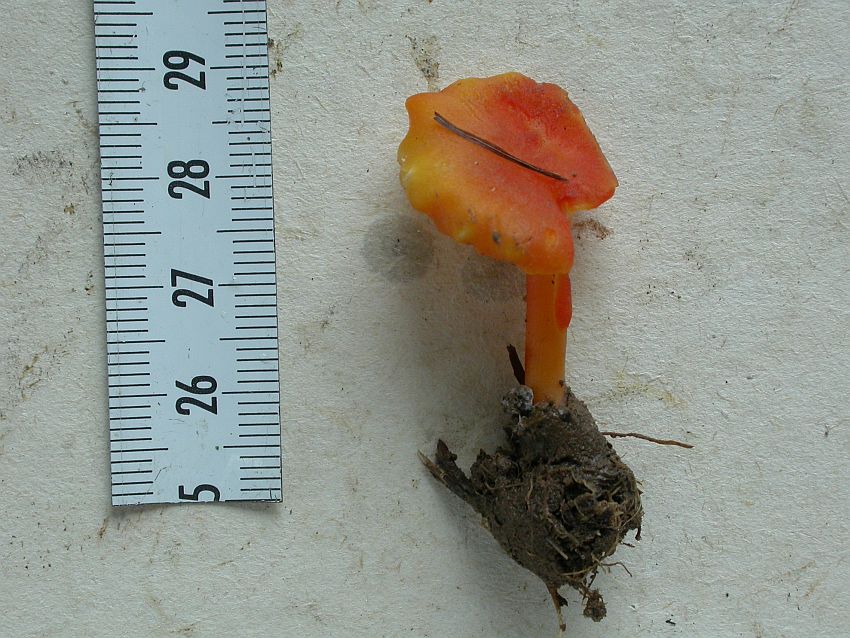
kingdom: Fungi
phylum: Basidiomycota
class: Agaricomycetes
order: Agaricales
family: Hygrophoraceae
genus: Hygrocybe
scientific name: Hygrocybe cantharellus
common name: kantarel-vokshat
